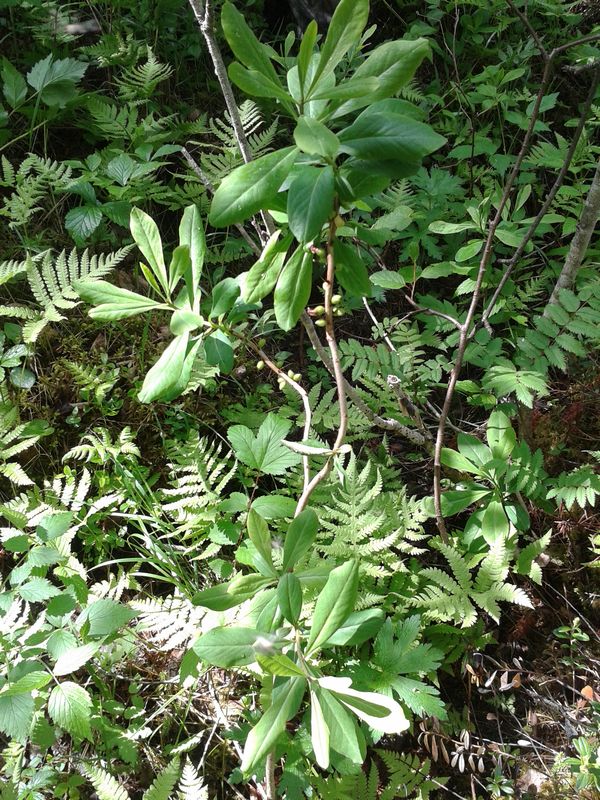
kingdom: Plantae
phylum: Tracheophyta
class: Magnoliopsida
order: Malvales
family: Thymelaeaceae
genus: Daphne
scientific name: Daphne mezereum
